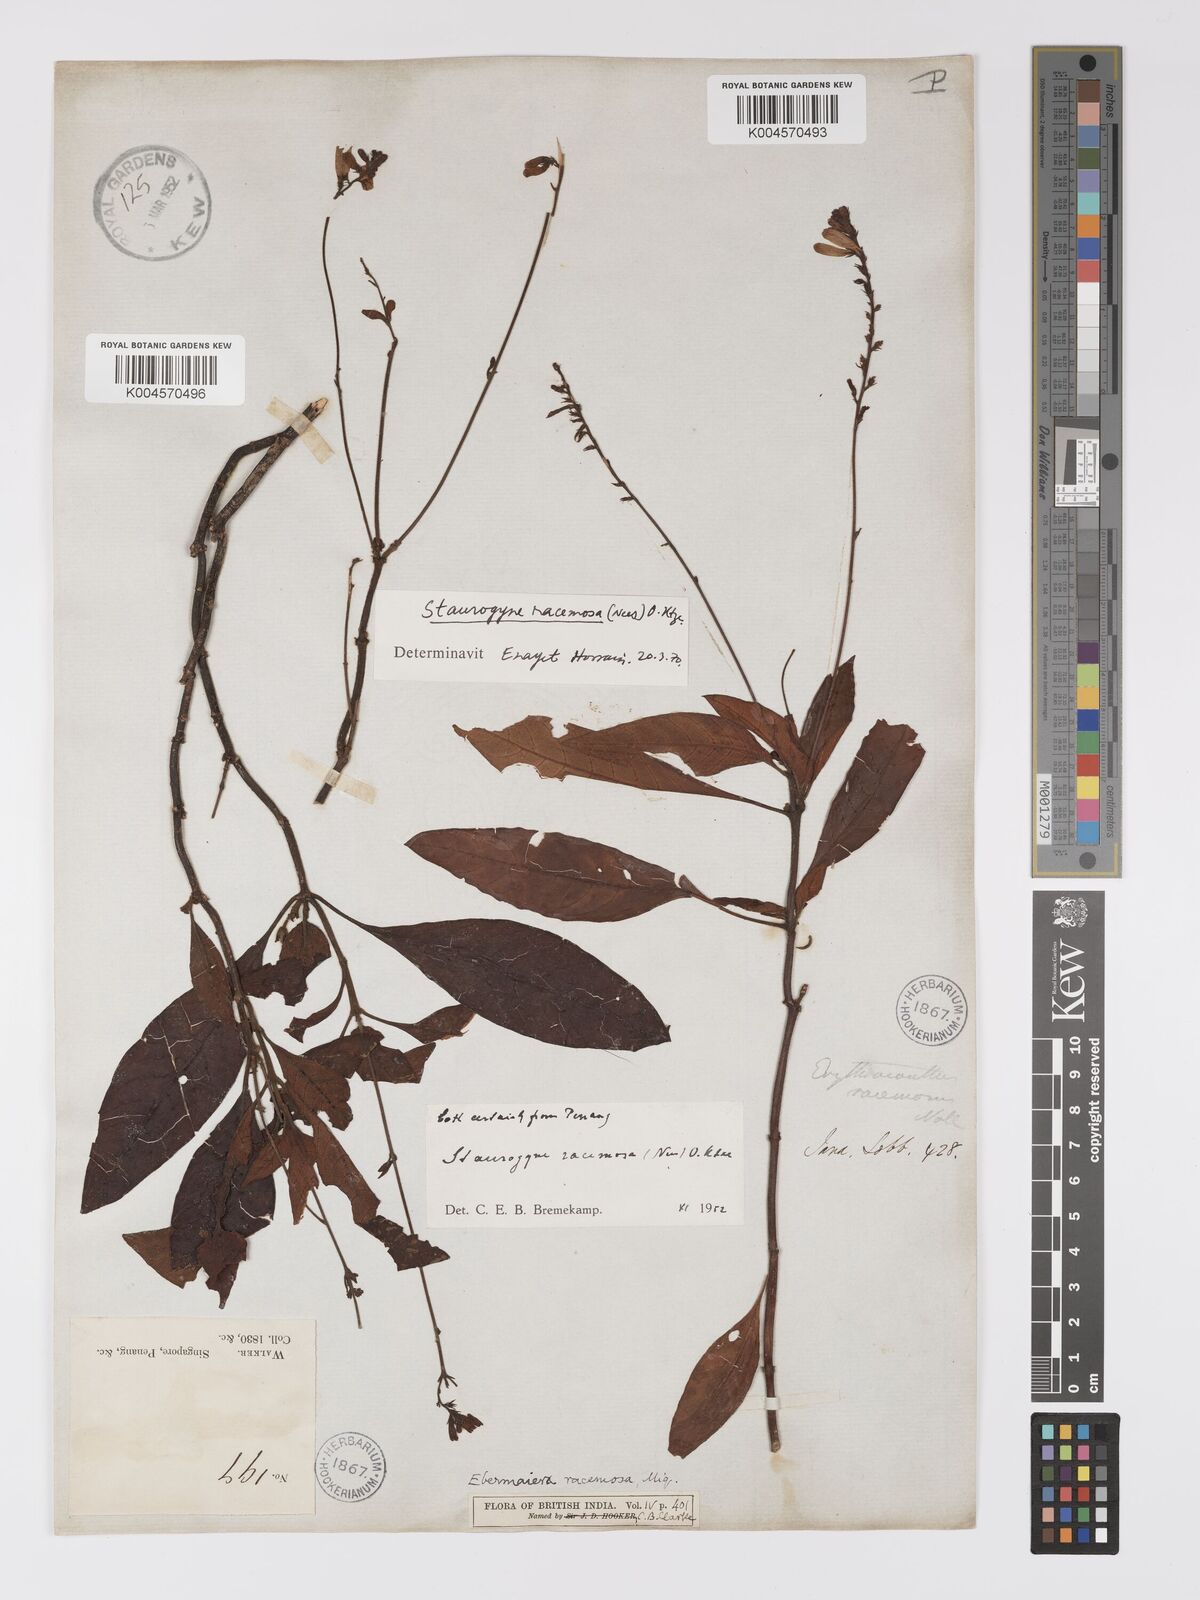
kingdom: Plantae
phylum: Tracheophyta
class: Magnoliopsida
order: Lamiales
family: Acanthaceae
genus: Staurogyne
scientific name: Staurogyne racemosa
